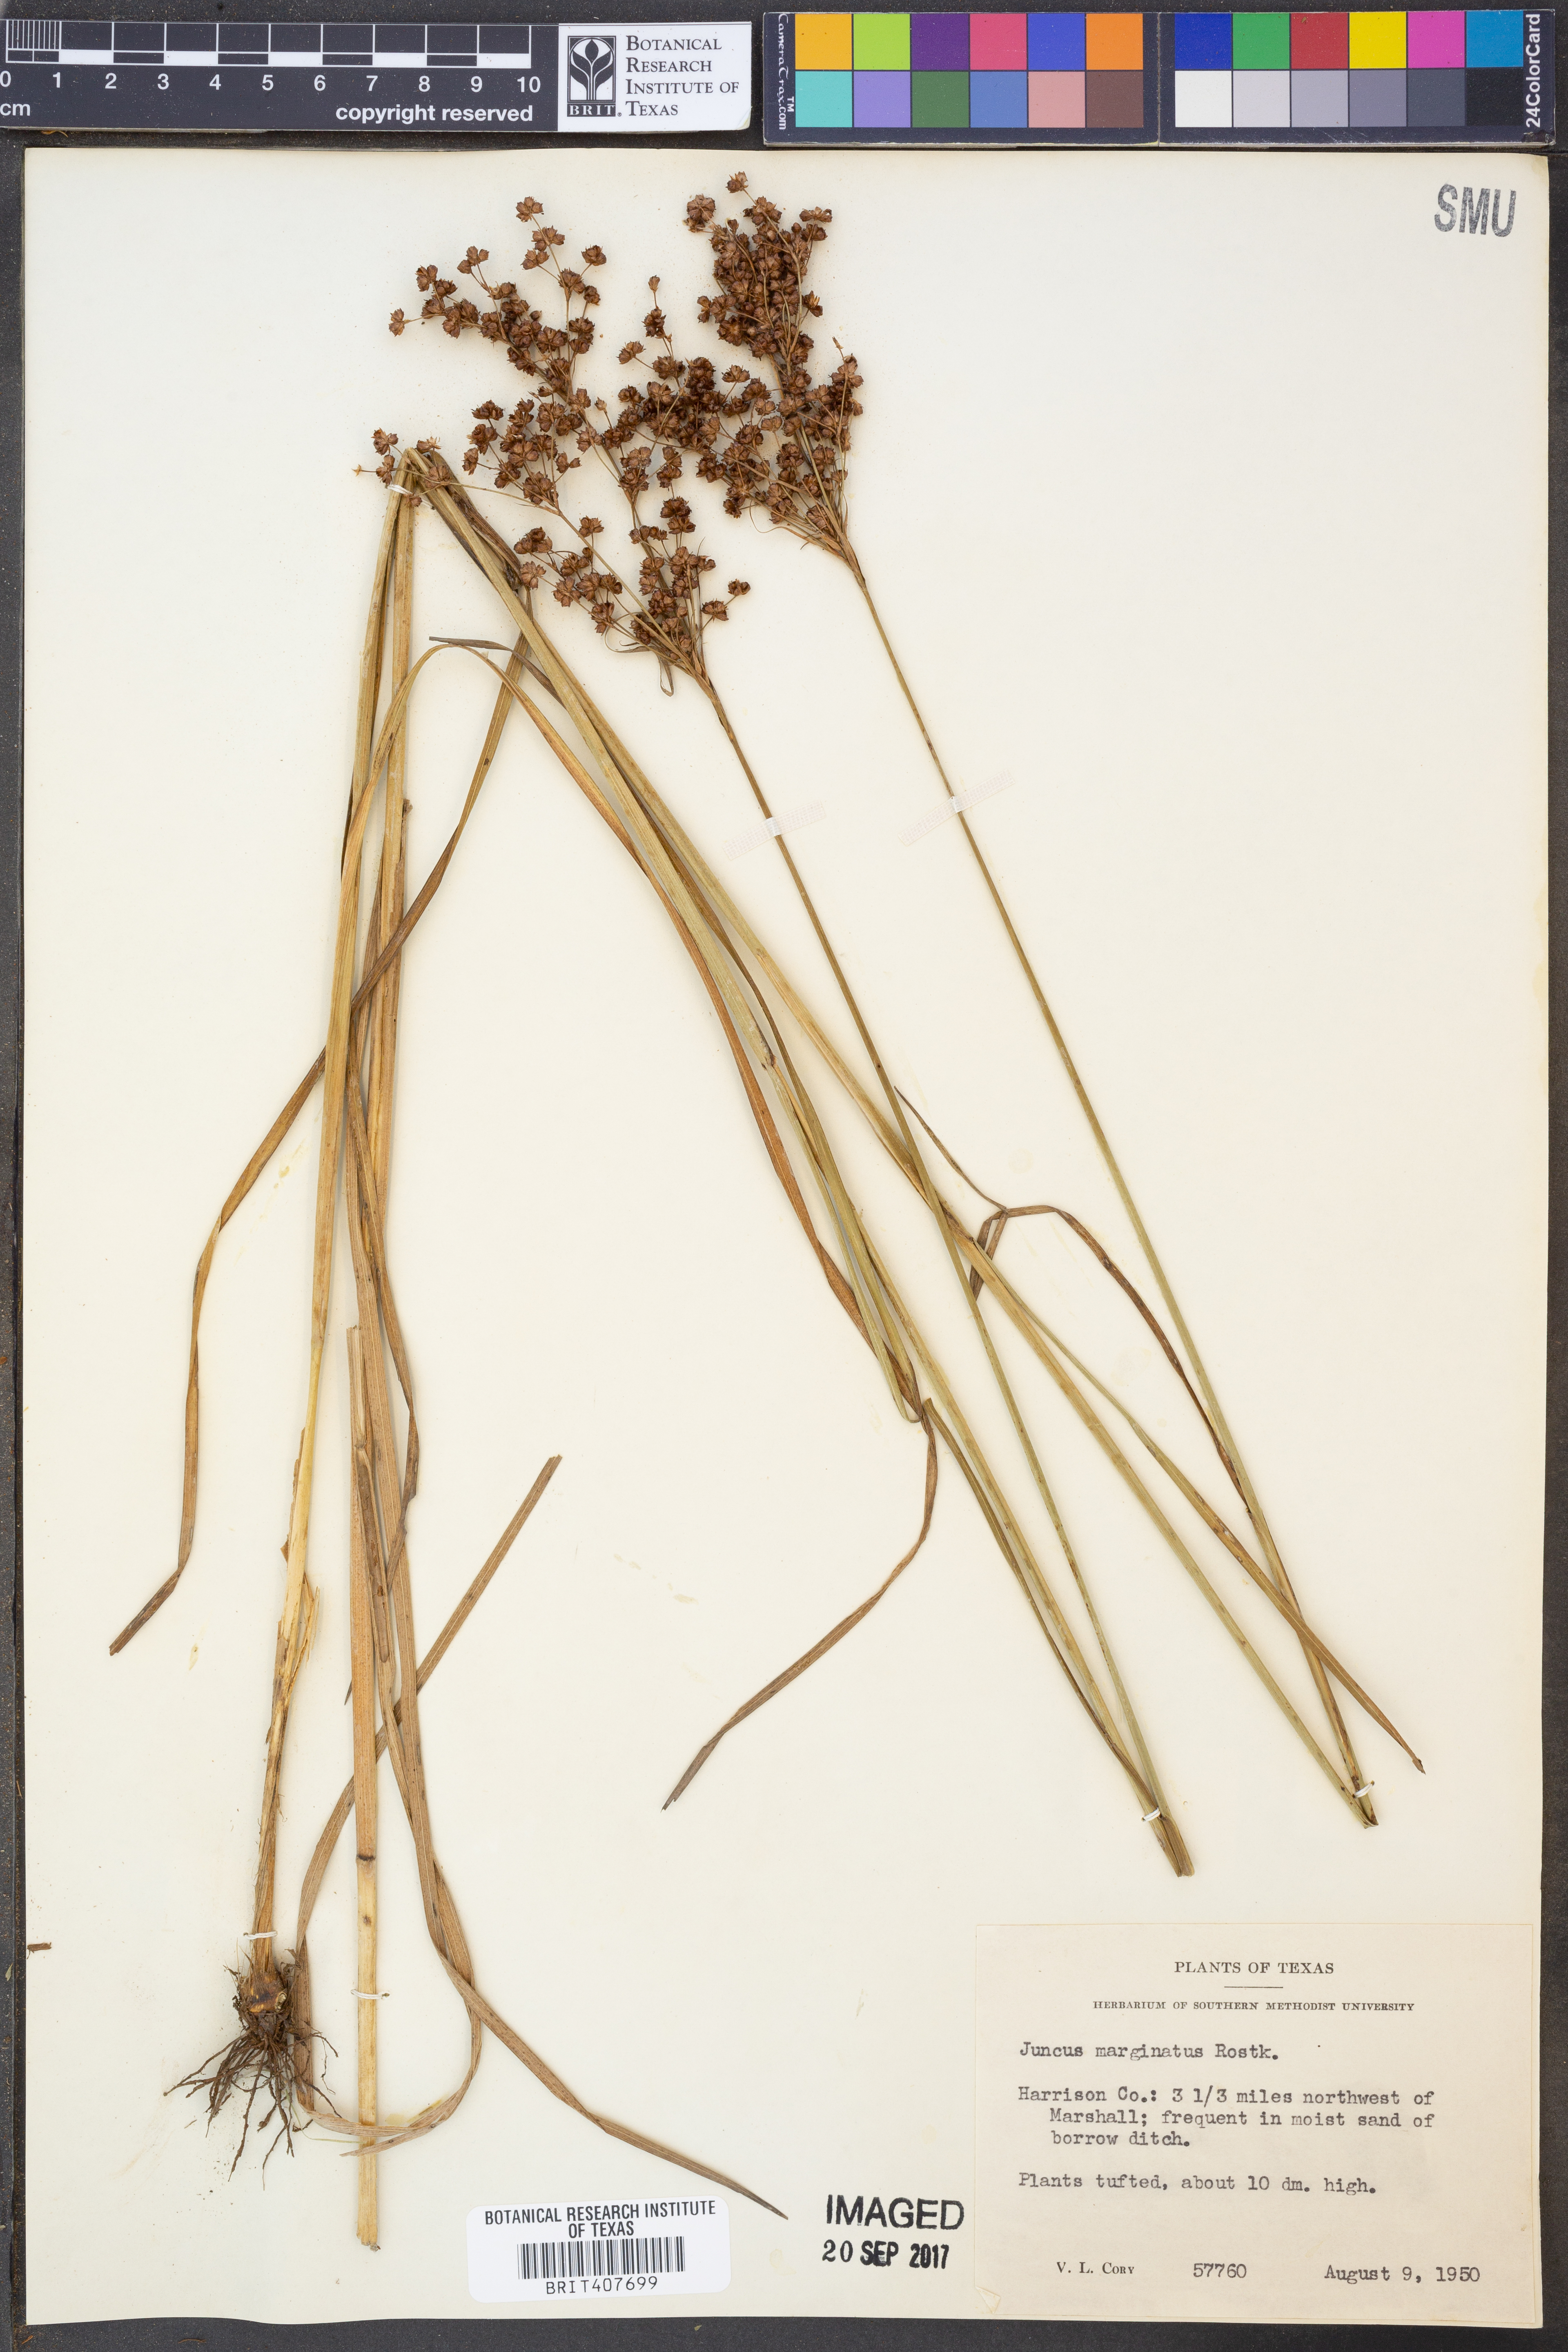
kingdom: Plantae
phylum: Tracheophyta
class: Liliopsida
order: Poales
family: Juncaceae
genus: Juncus
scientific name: Juncus marginatus
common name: Grass-leaf rush
